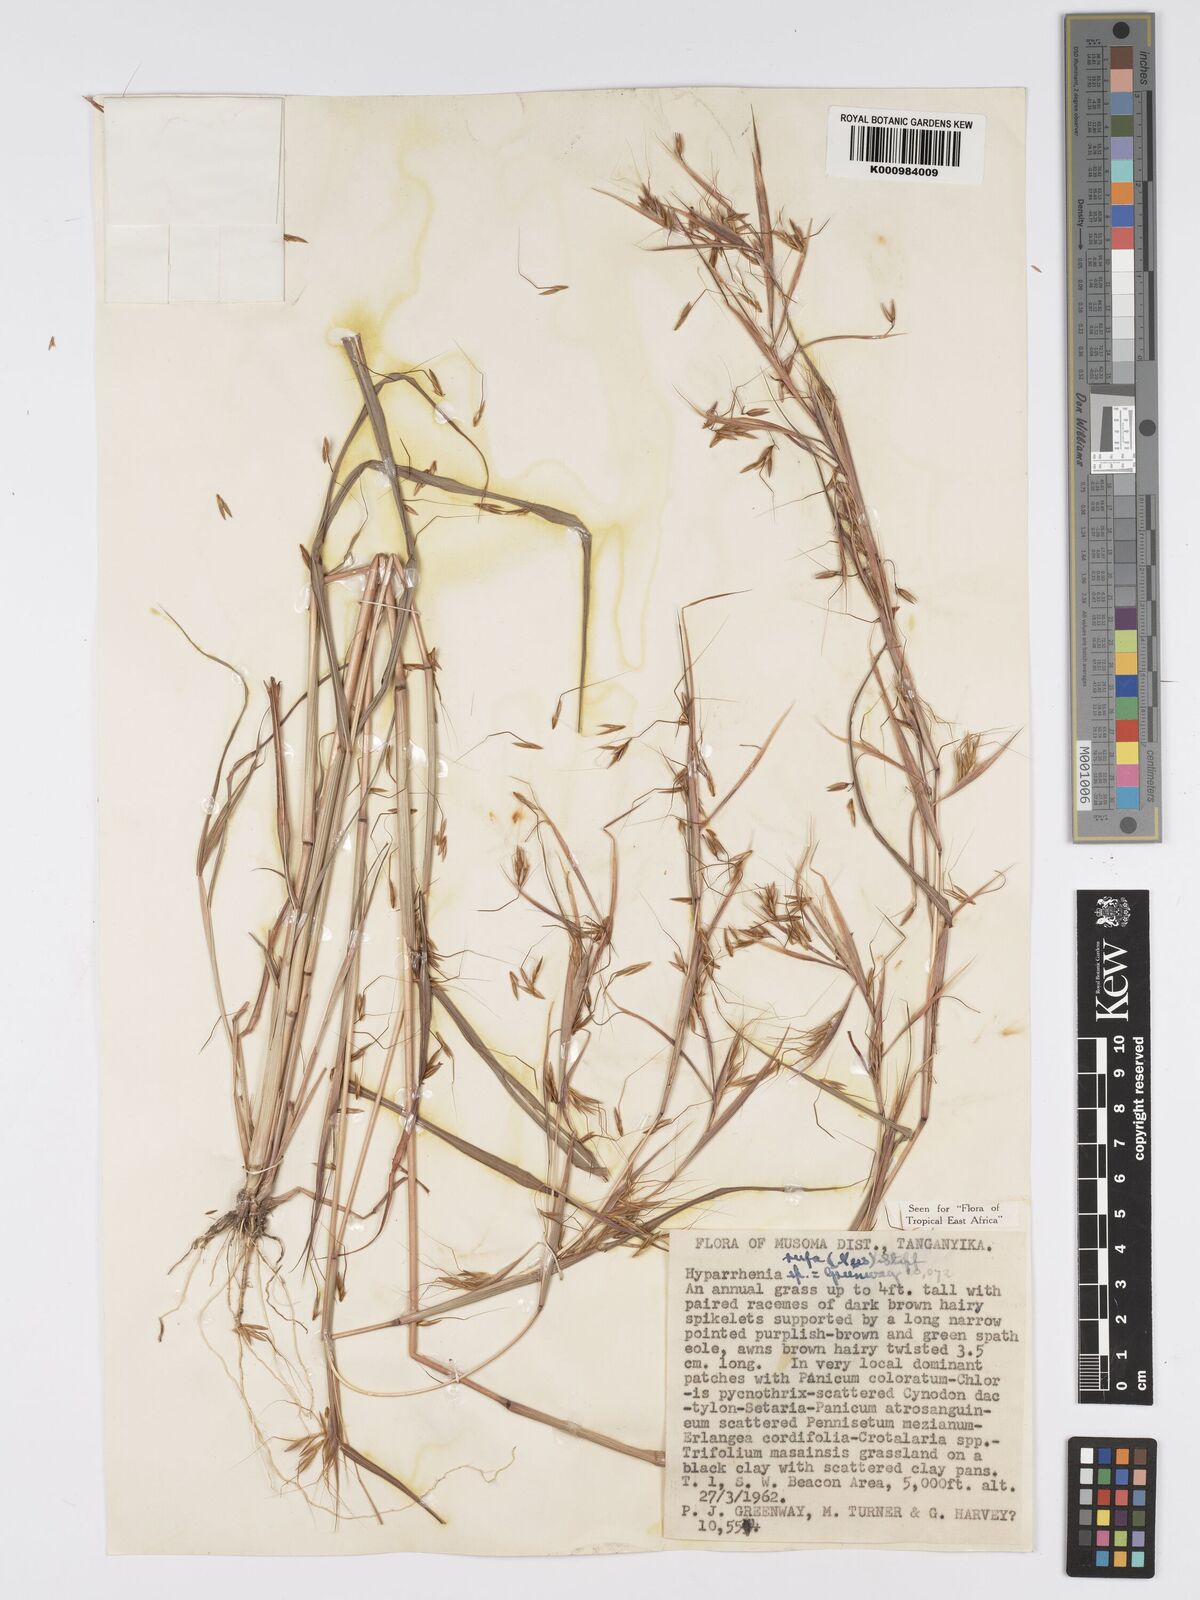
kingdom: Plantae
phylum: Tracheophyta
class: Liliopsida
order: Poales
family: Poaceae
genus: Hyparrhenia
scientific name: Hyparrhenia rufa
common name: Jaraguagrass
